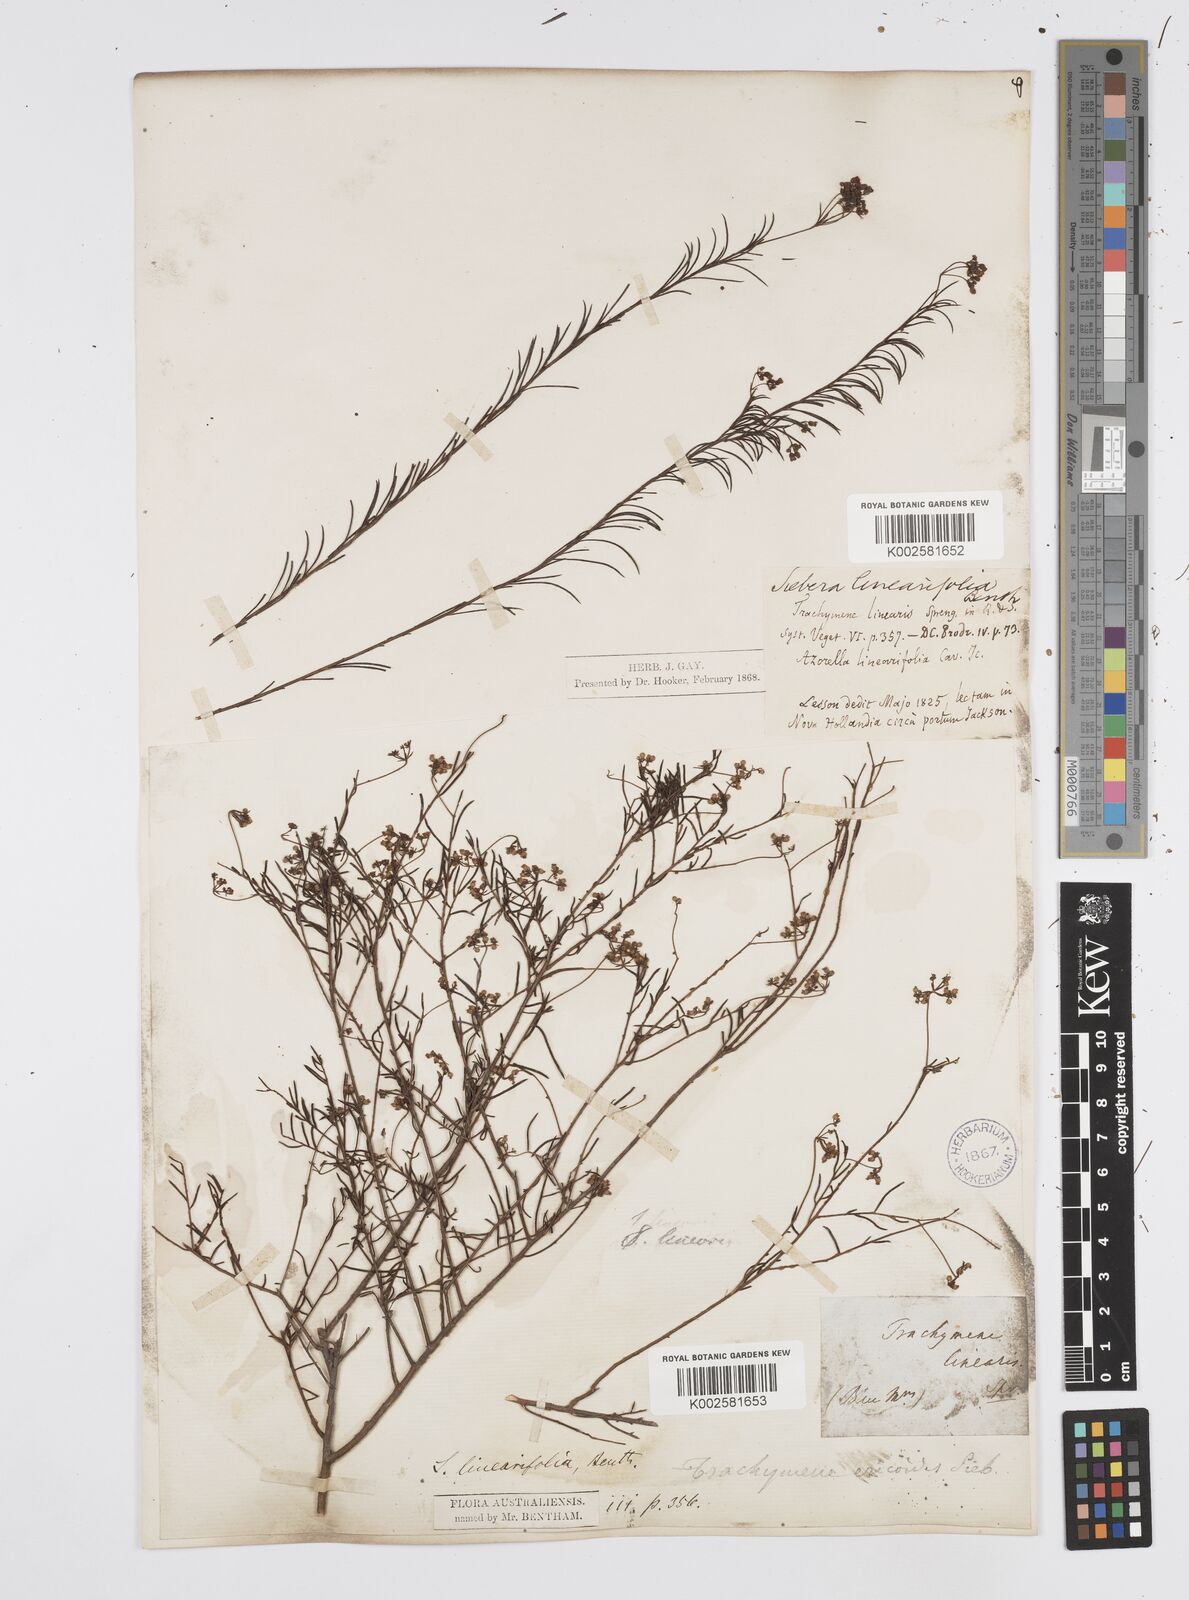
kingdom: Plantae
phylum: Tracheophyta
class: Magnoliopsida
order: Apiales
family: Apiaceae
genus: Platysace
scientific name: Platysace linearifolia
